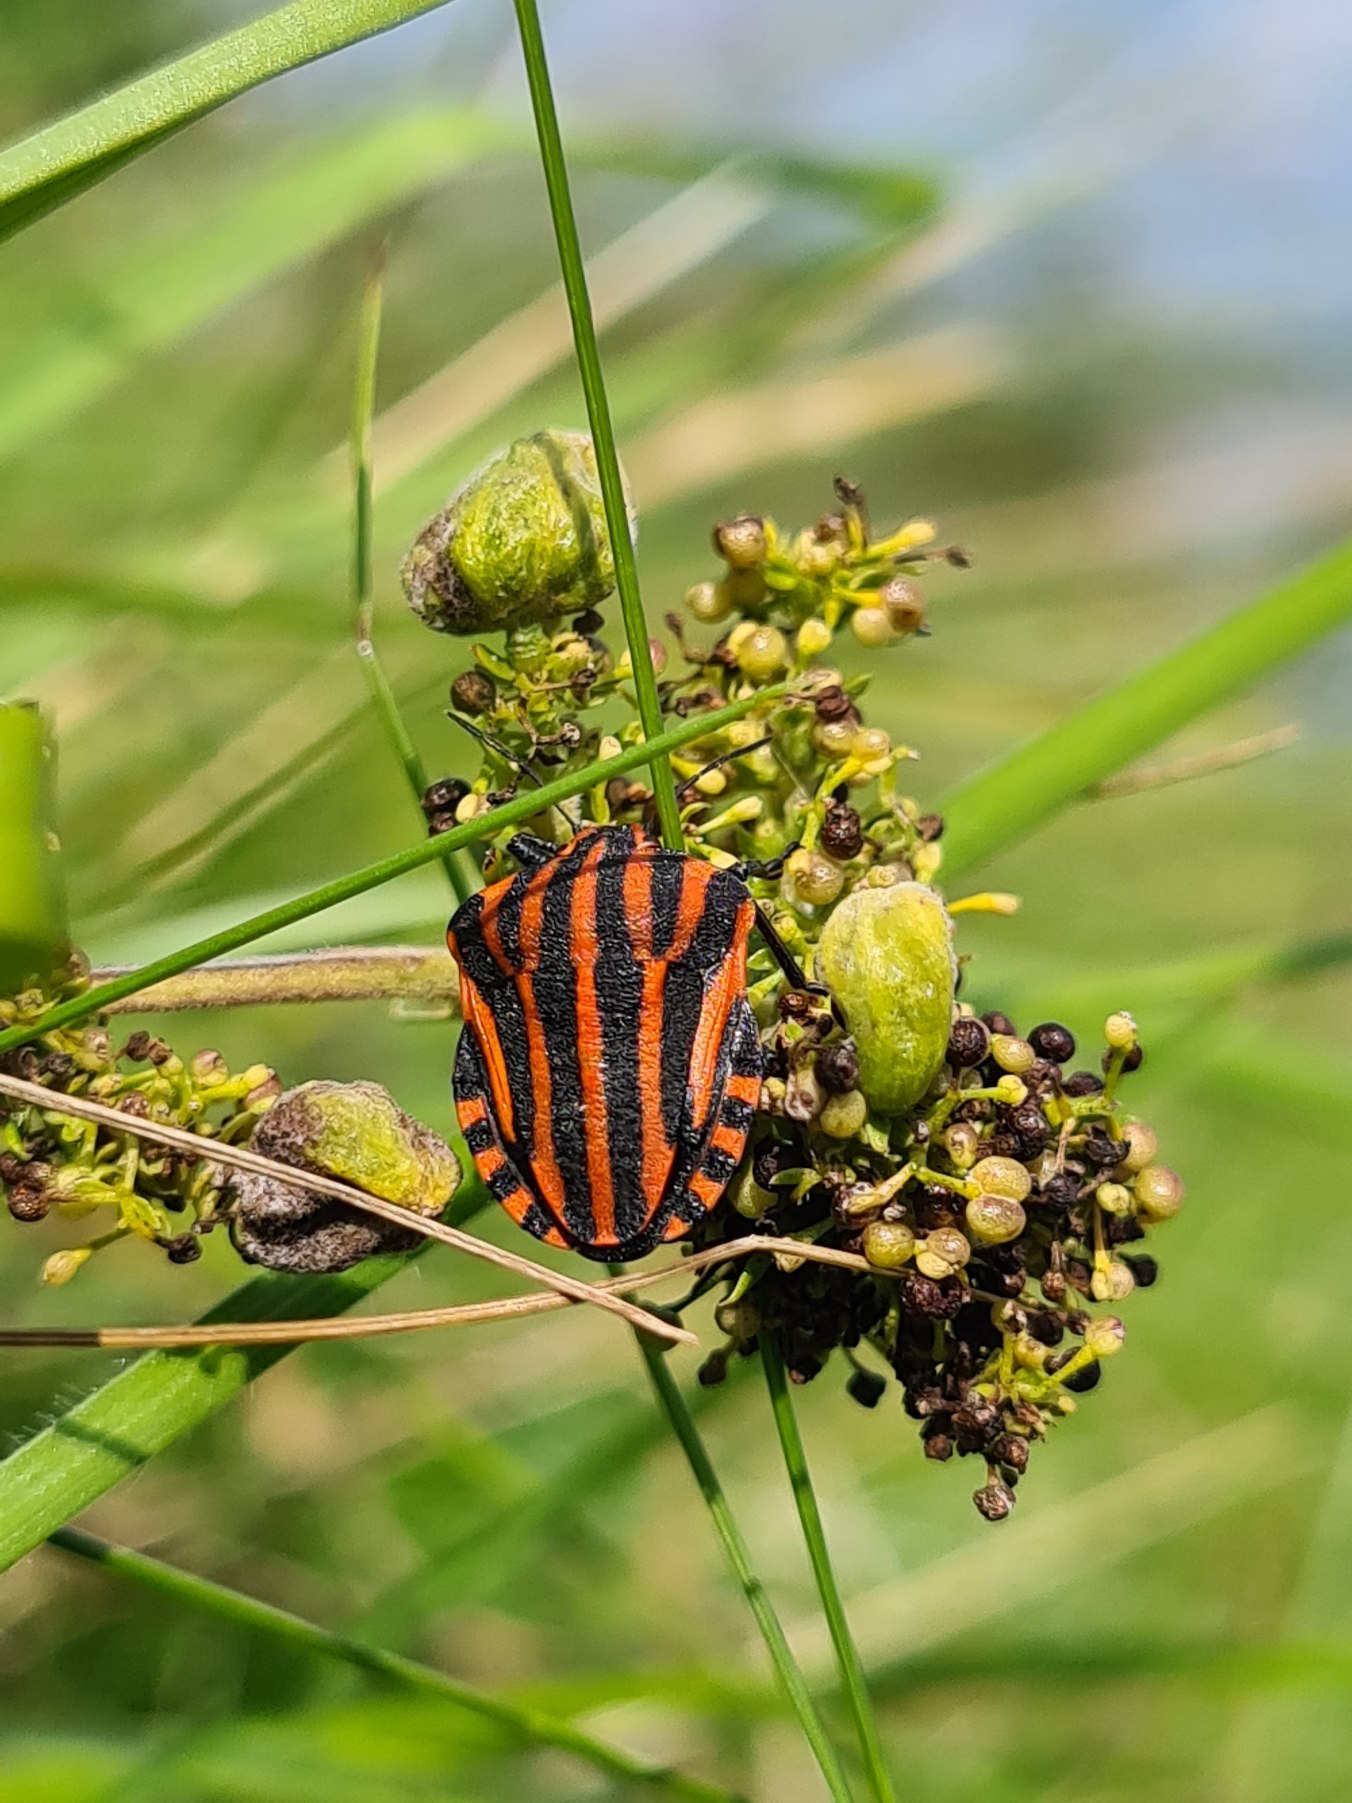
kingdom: Animalia
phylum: Arthropoda
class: Insecta
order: Hemiptera
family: Pentatomidae
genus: Graphosoma
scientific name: Graphosoma italicum
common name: Stribetæge
